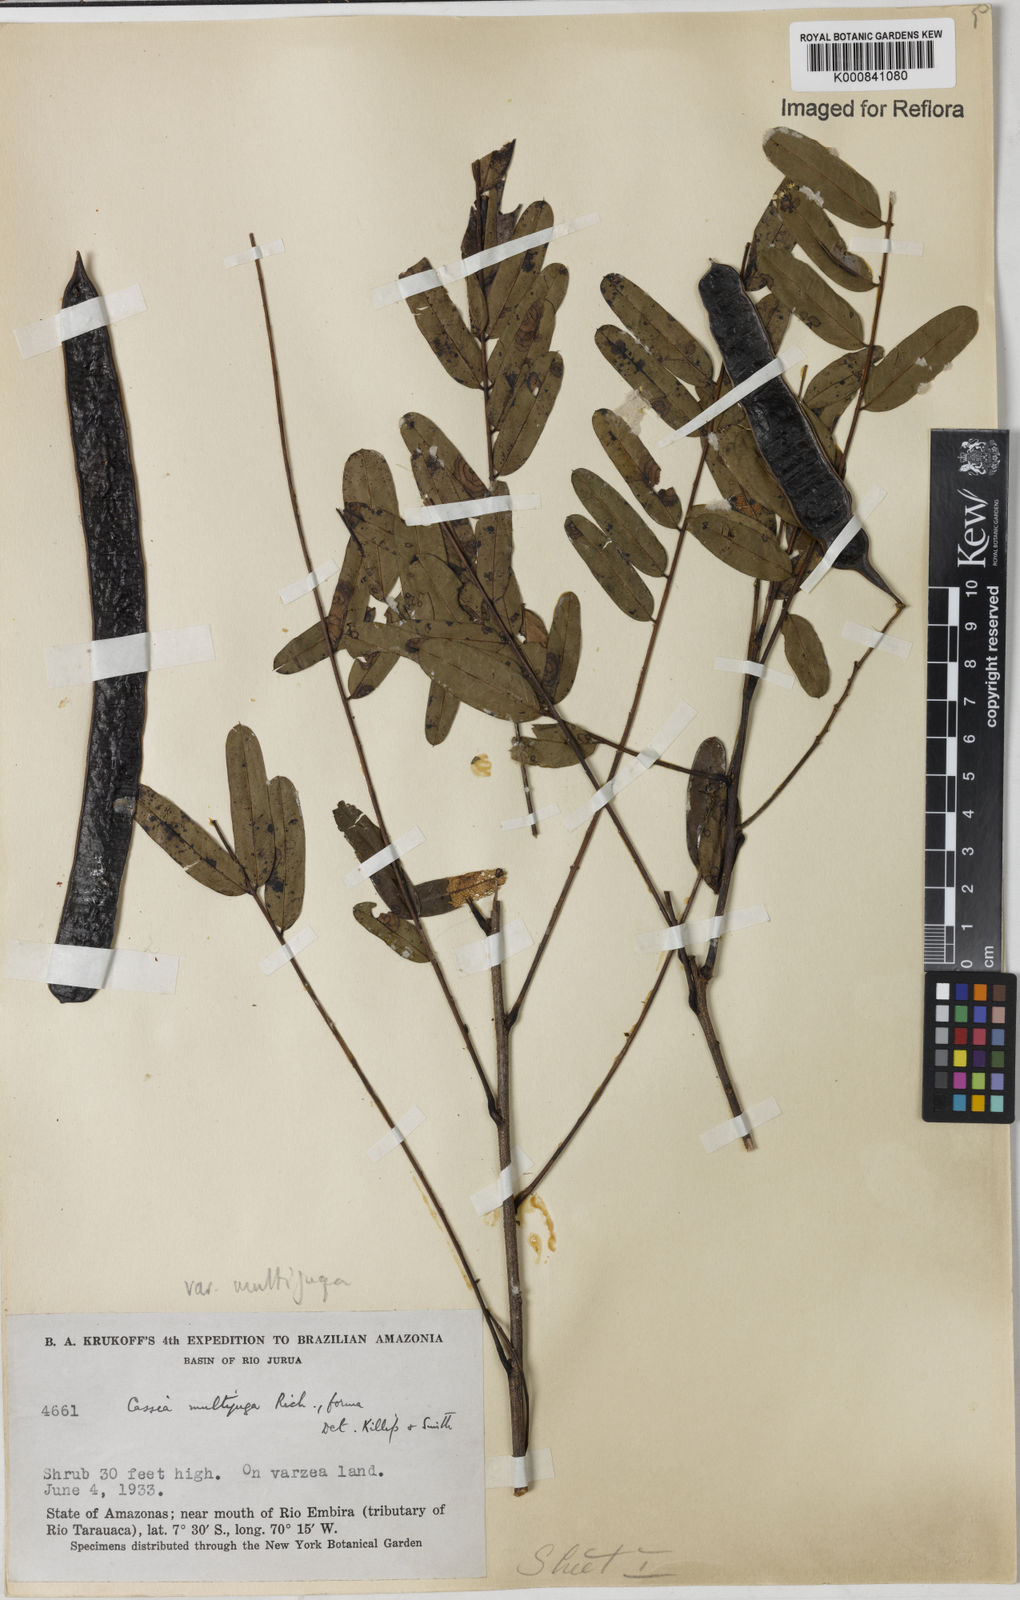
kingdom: Plantae
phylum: Tracheophyta
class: Magnoliopsida
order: Fabales
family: Fabaceae
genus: Senna
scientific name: Senna multijuga
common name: False sicklepod
